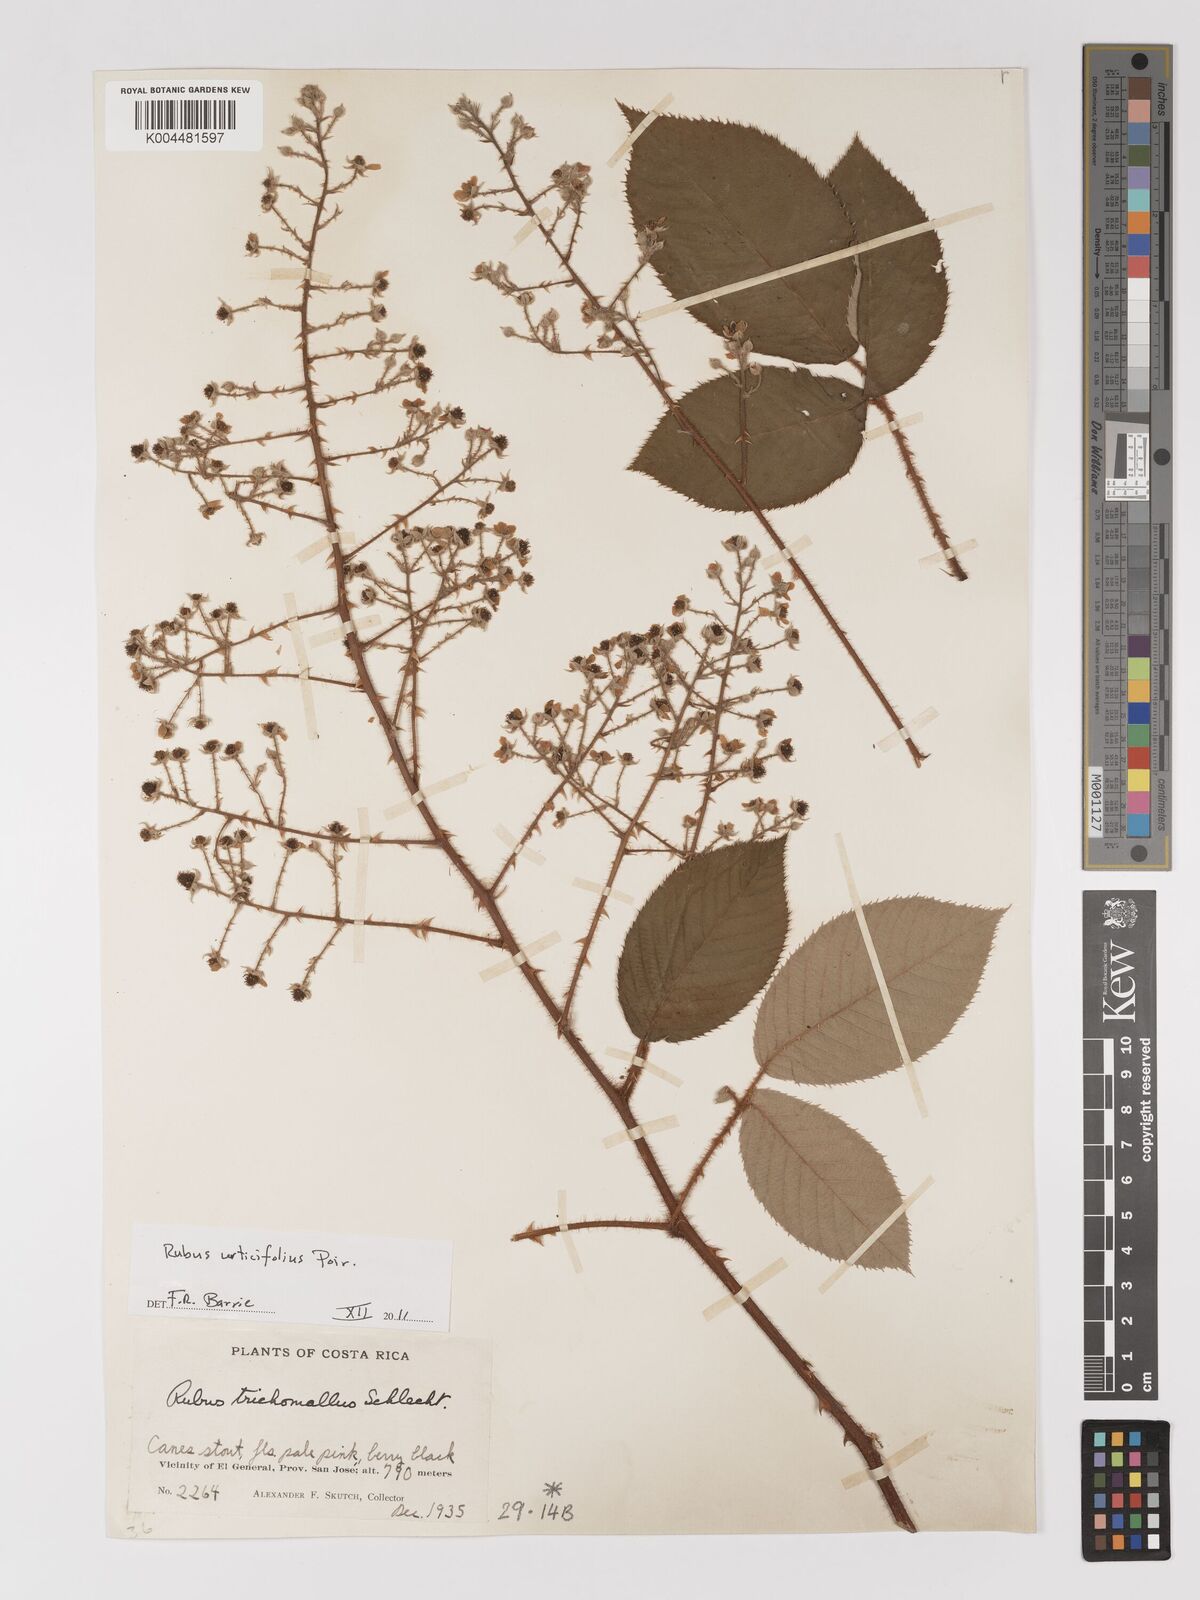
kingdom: Plantae
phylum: Tracheophyta
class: Magnoliopsida
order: Rosales
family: Rosaceae
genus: Rubus
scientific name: Rubus urticifolius
